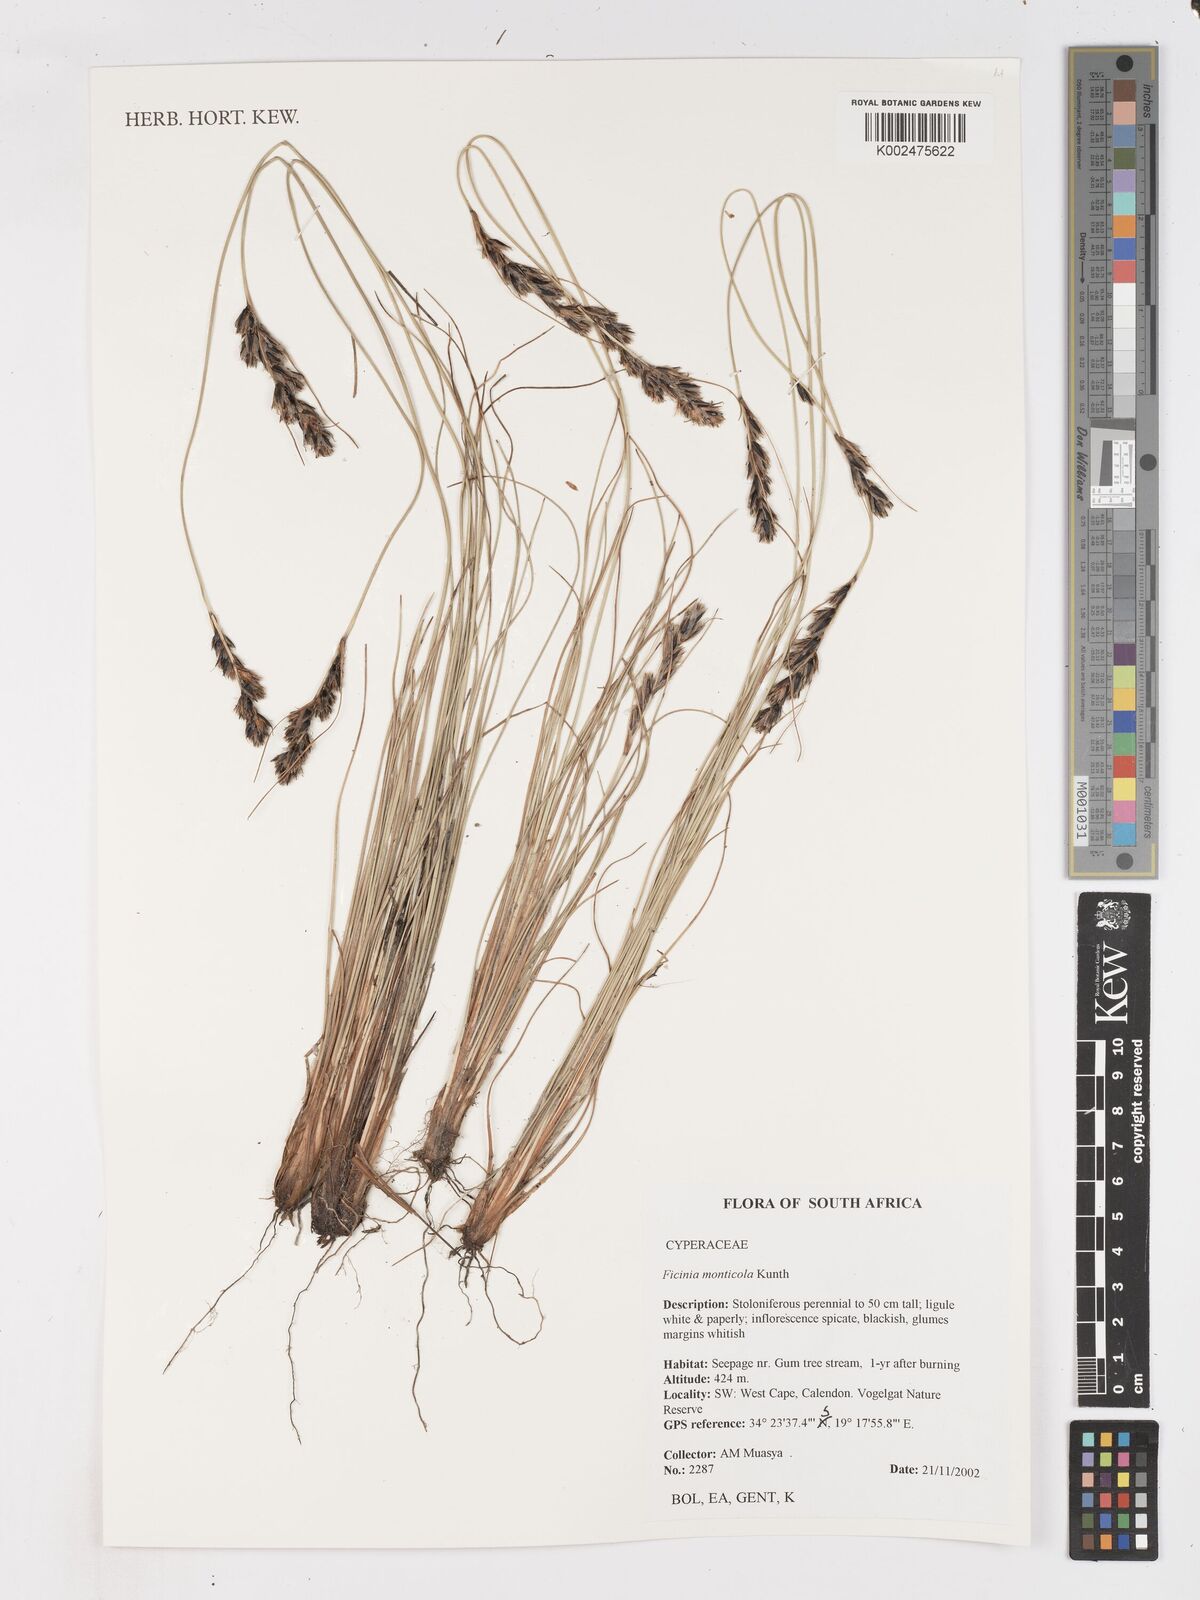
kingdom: Plantae
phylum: Tracheophyta
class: Liliopsida
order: Poales
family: Cyperaceae
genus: Ficinia
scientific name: Ficinia monticola
